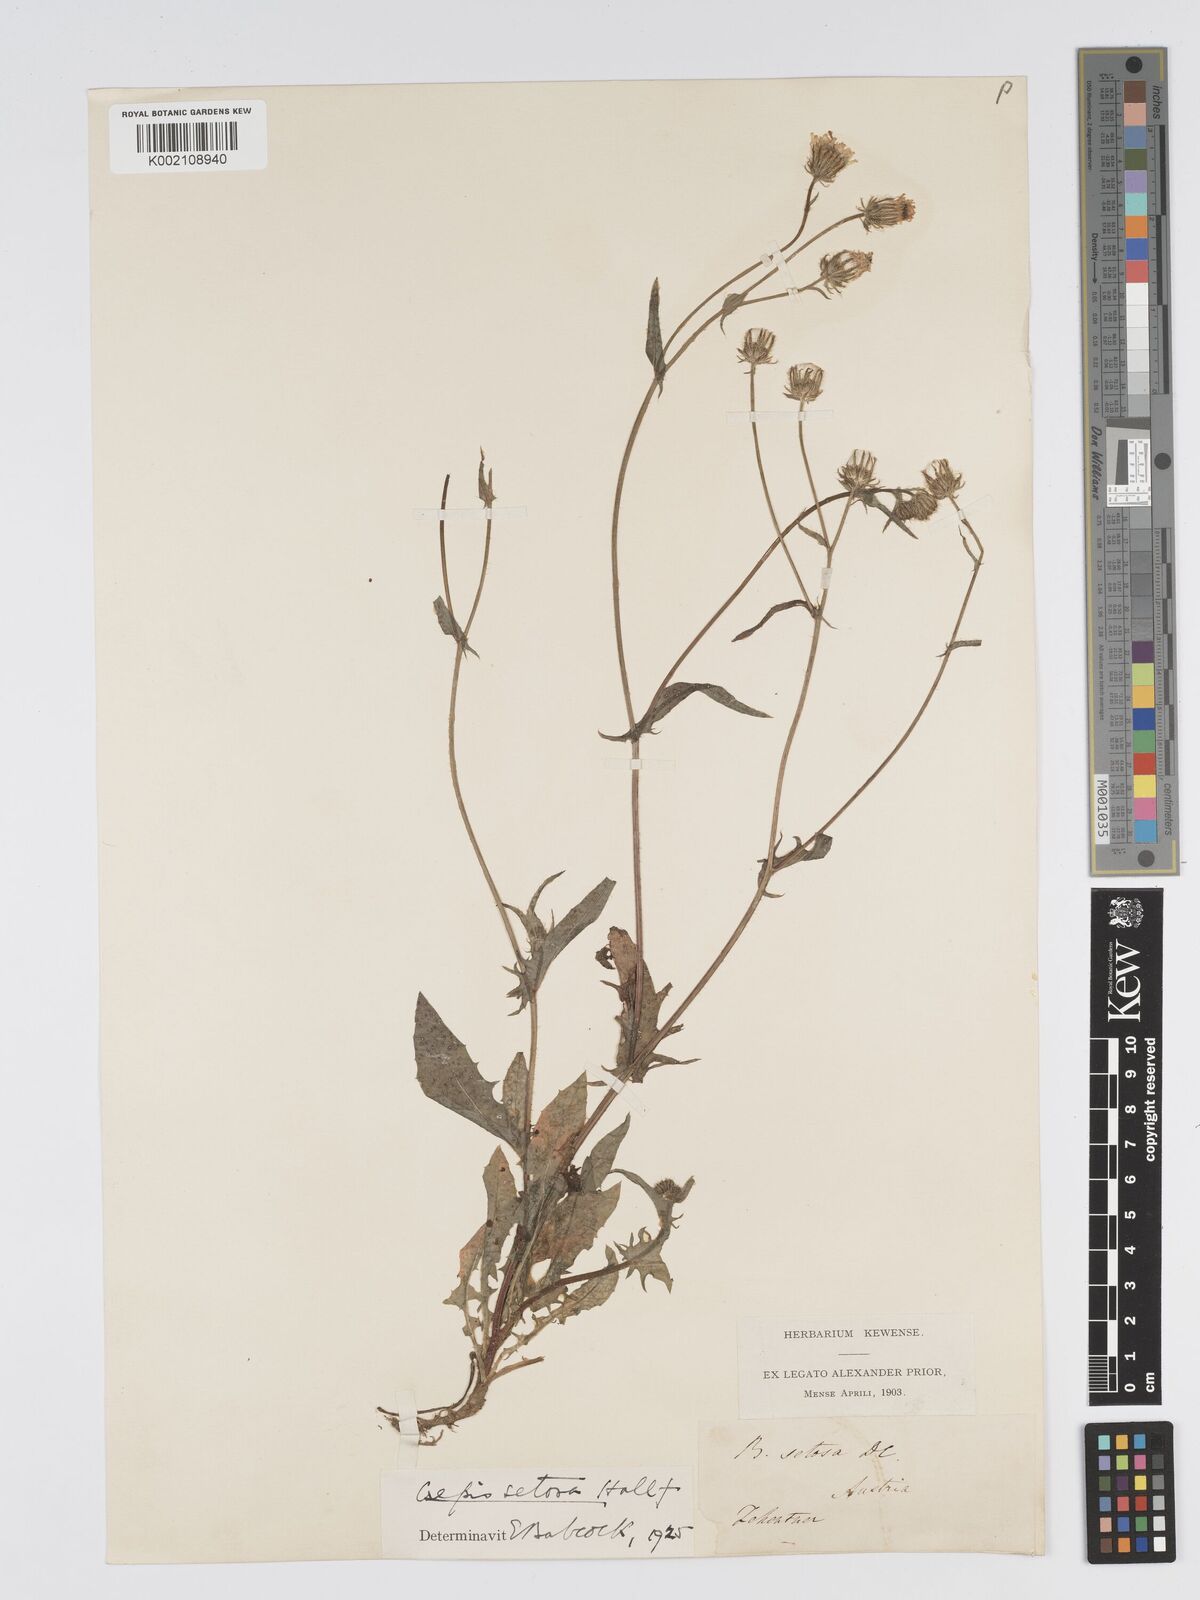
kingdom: Plantae
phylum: Tracheophyta
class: Magnoliopsida
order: Asterales
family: Asteraceae
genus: Crepis
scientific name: Crepis setosa
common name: Bristly hawk's-beard
